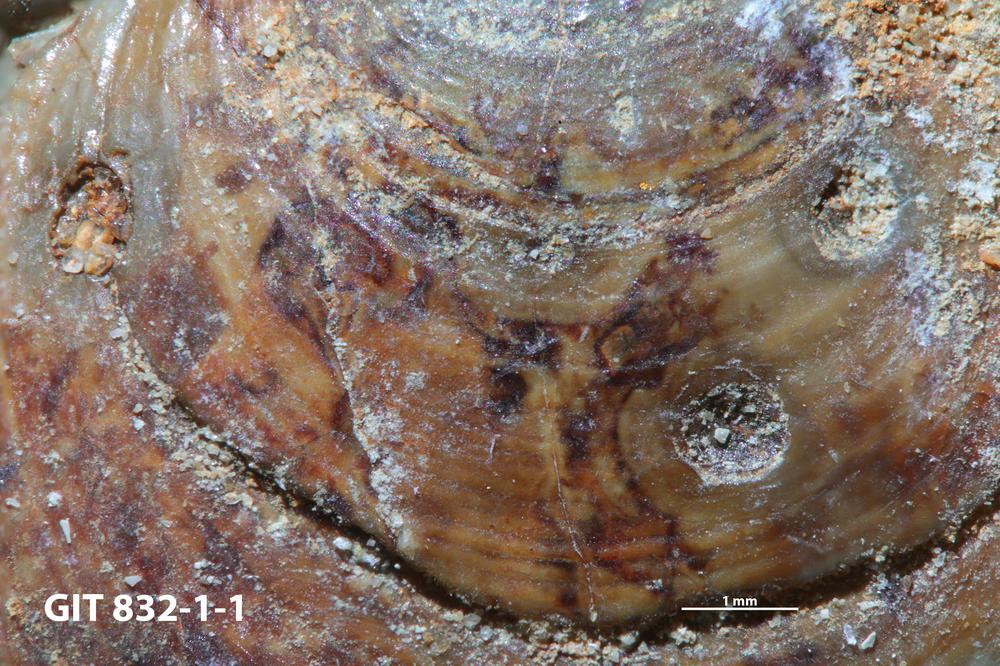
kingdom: Animalia
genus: Oichnus
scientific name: Oichnus
